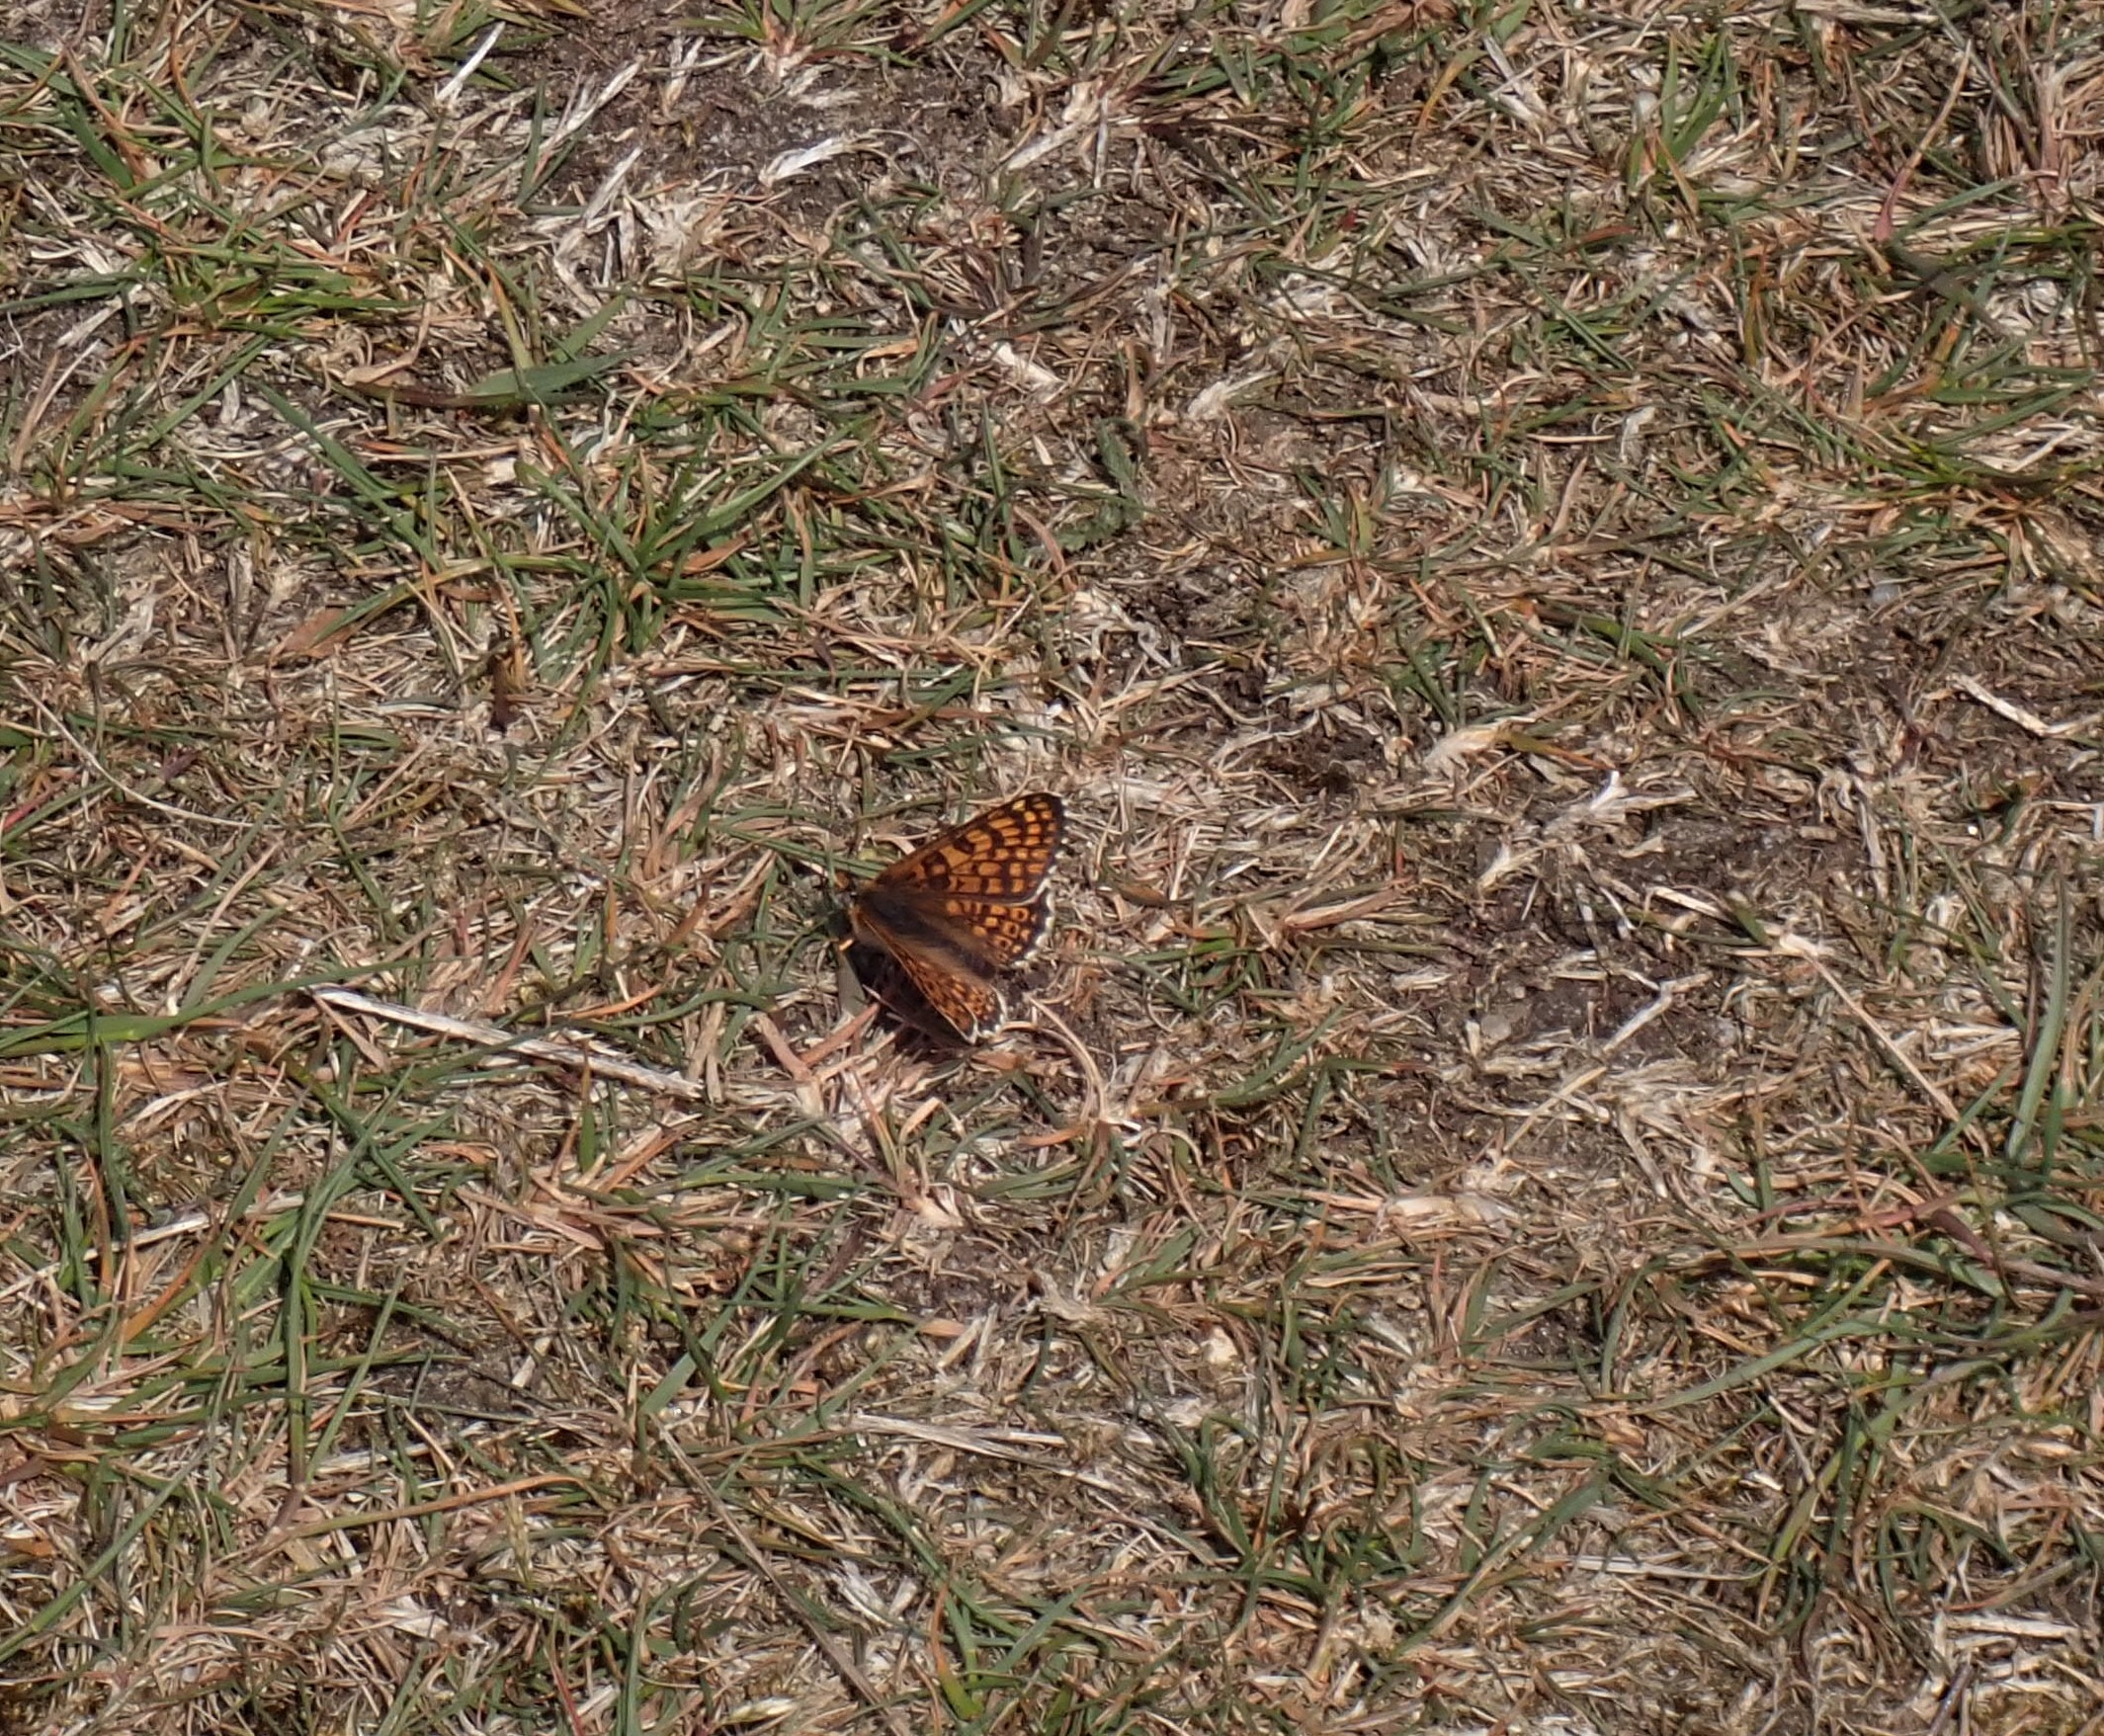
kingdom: Animalia
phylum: Arthropoda
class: Insecta
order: Lepidoptera
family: Nymphalidae
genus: Melitaea
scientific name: Melitaea cinxia
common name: Okkergul pletvinge
